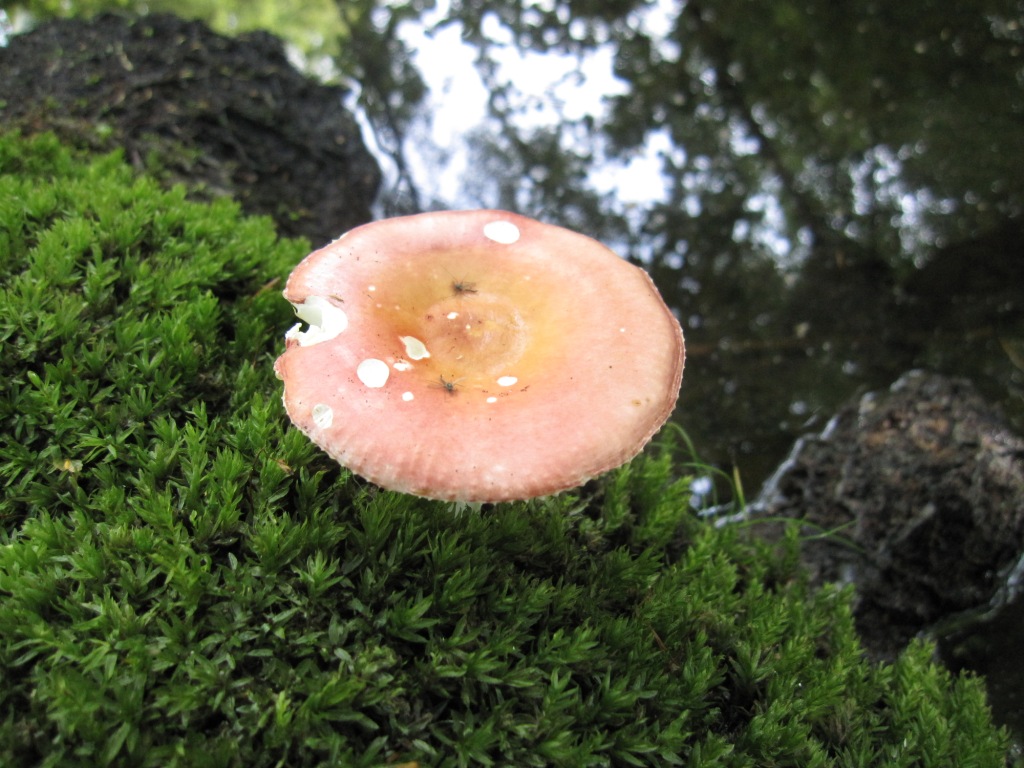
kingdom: Fungi
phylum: Basidiomycota
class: Agaricomycetes
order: Russulales
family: Russulaceae
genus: Russula
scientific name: Russula velenovskyi
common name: orangerød skørhat
